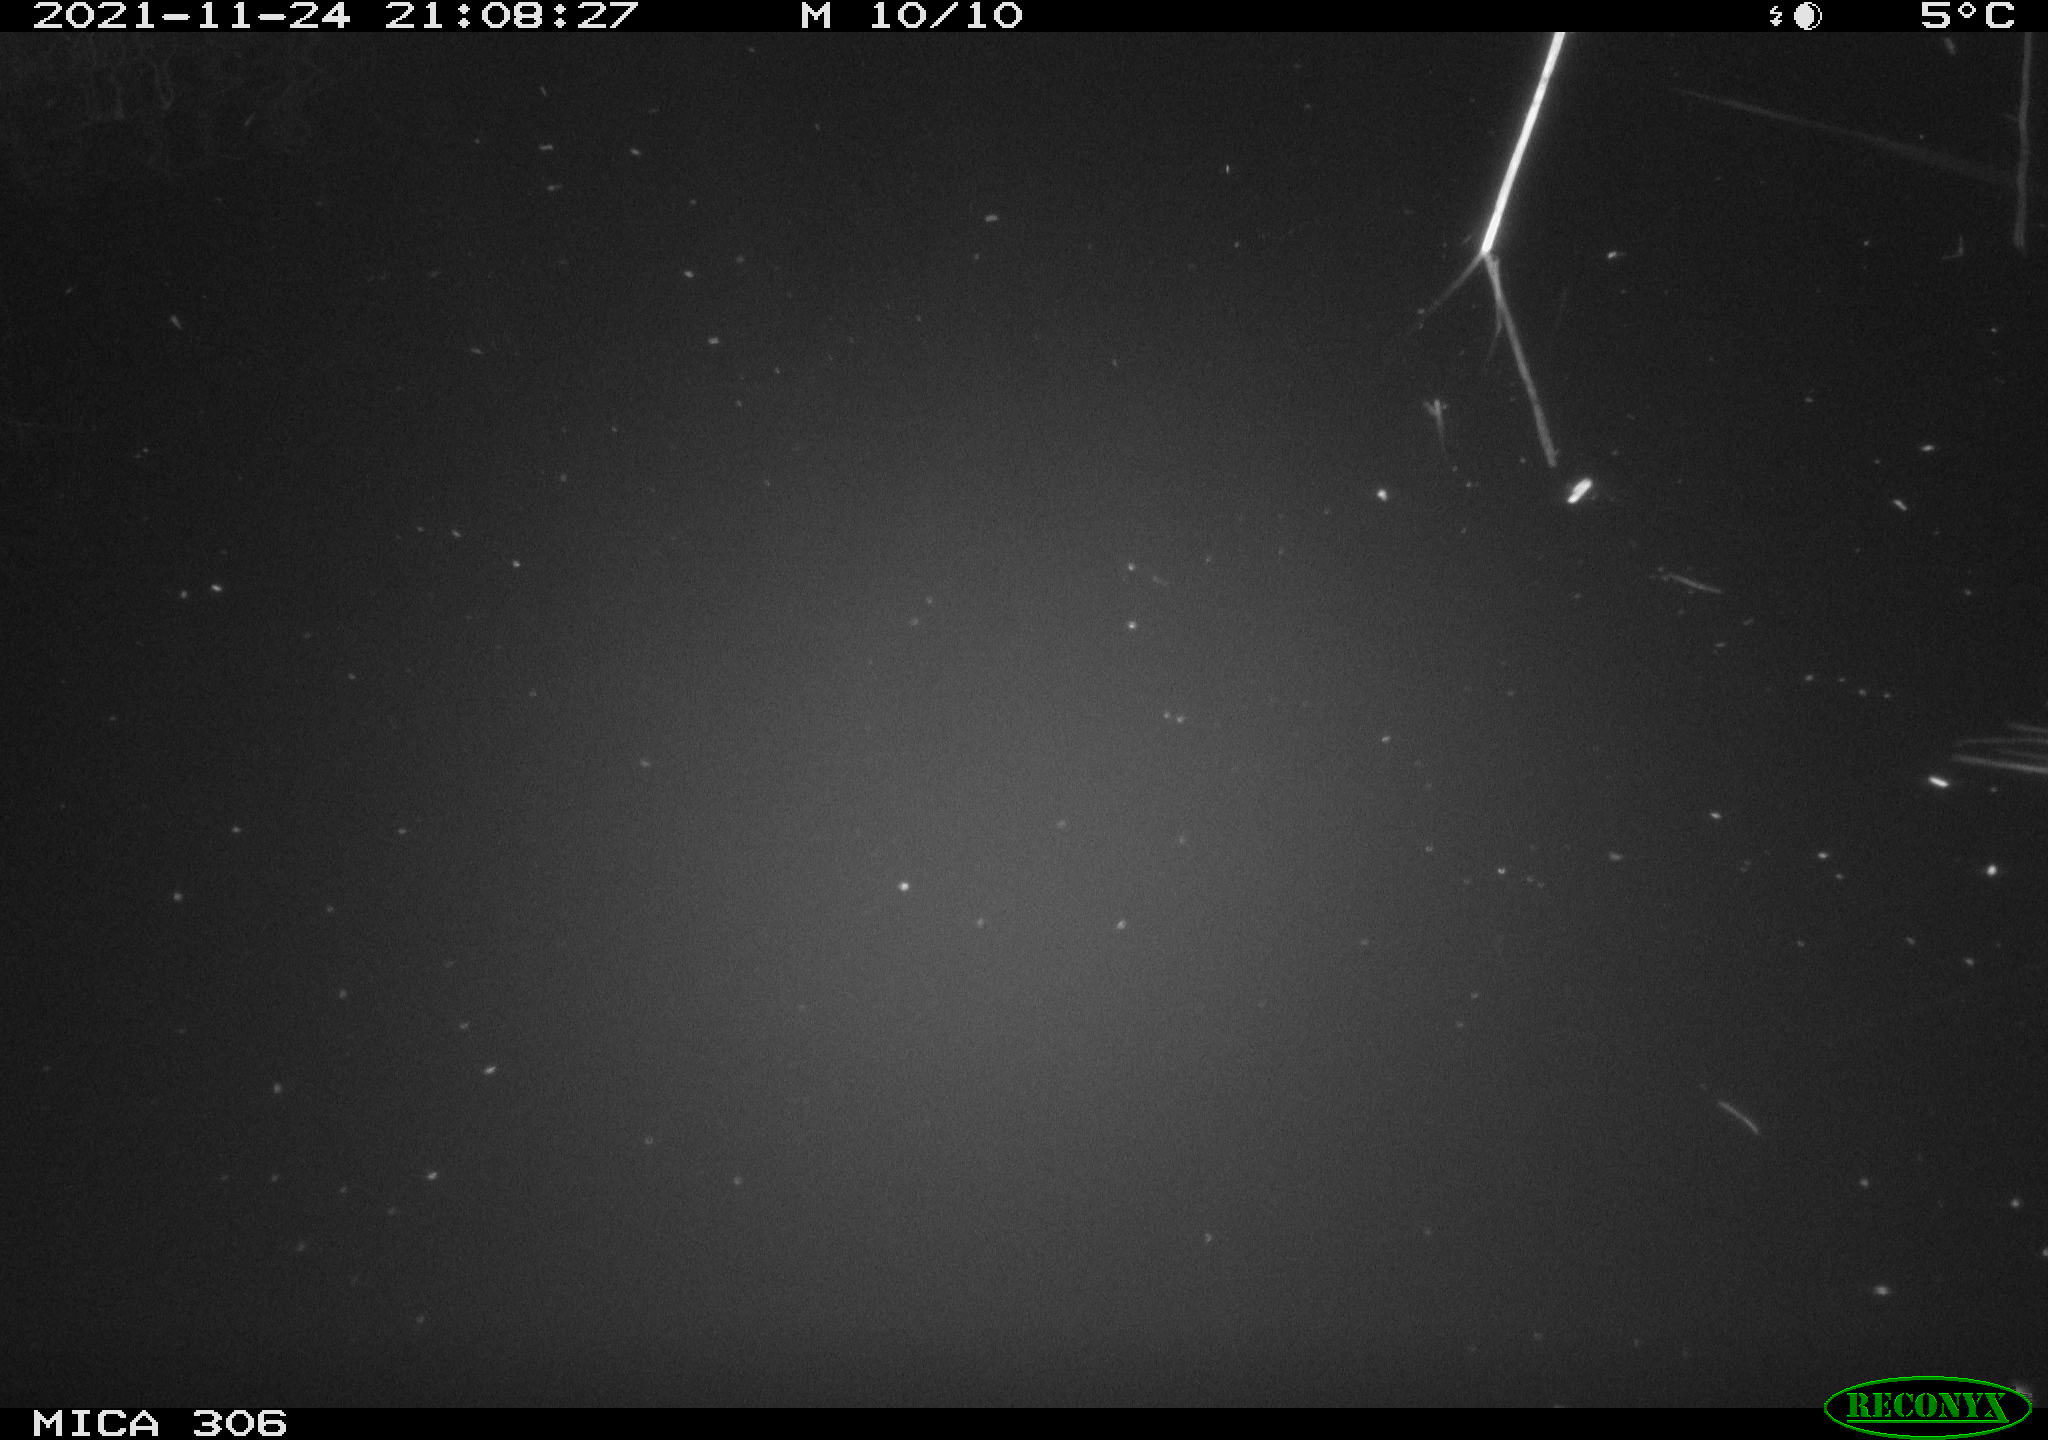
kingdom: Animalia
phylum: Chordata
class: Mammalia
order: Rodentia
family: Muridae
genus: Rattus
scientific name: Rattus norvegicus
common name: Brown rat
